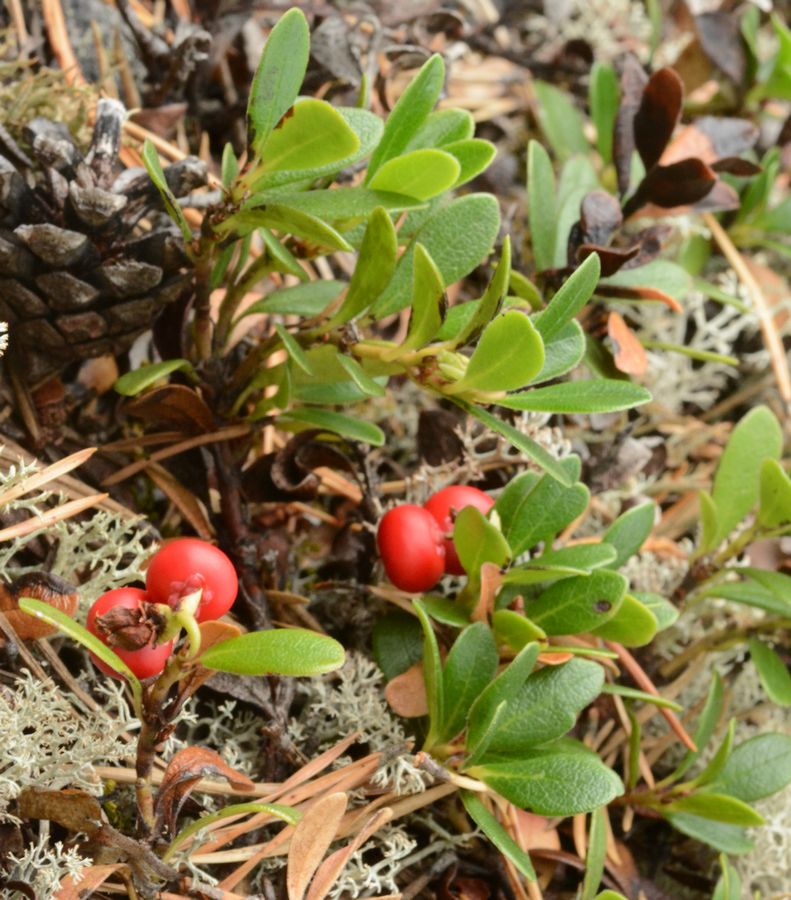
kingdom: Plantae
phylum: Tracheophyta
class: Magnoliopsida
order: Ericales
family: Ericaceae
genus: Arctostaphylos
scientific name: Arctostaphylos uva-ursi
